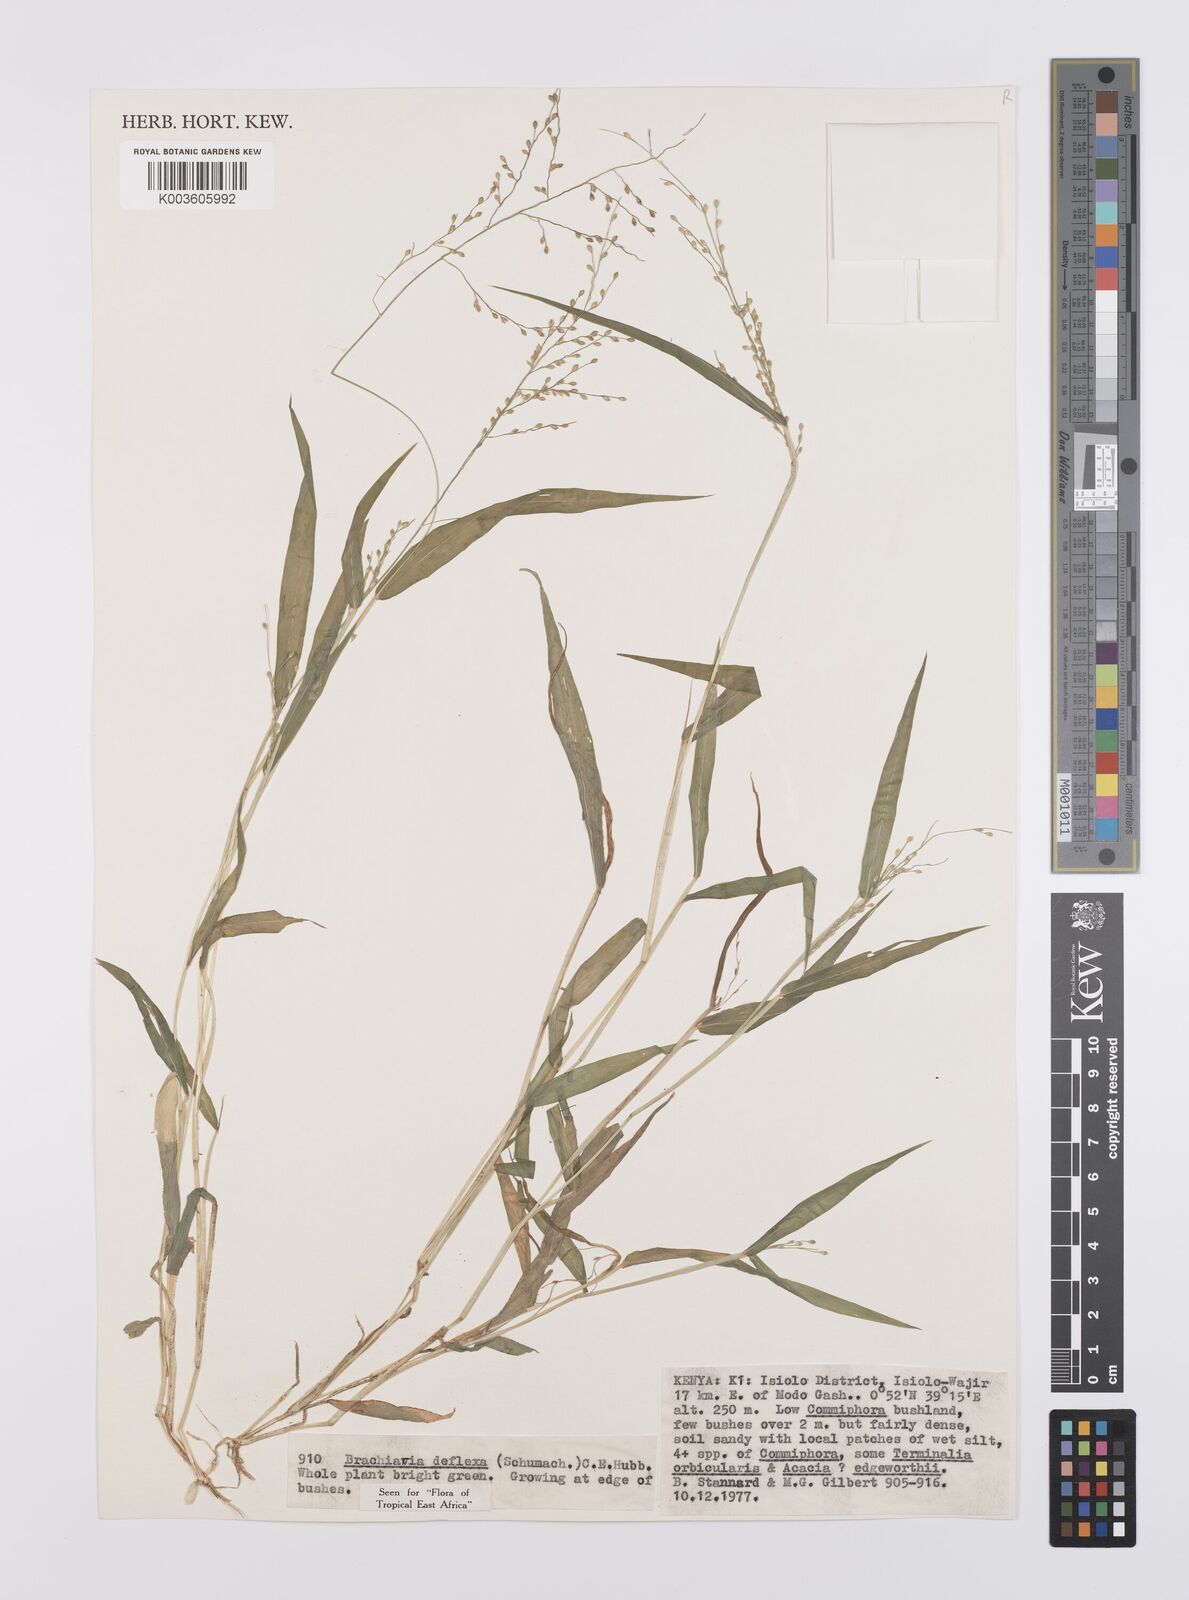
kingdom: Plantae
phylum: Tracheophyta
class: Liliopsida
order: Poales
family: Poaceae
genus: Urochloa
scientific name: Urochloa deflexa
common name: Guinea millet
